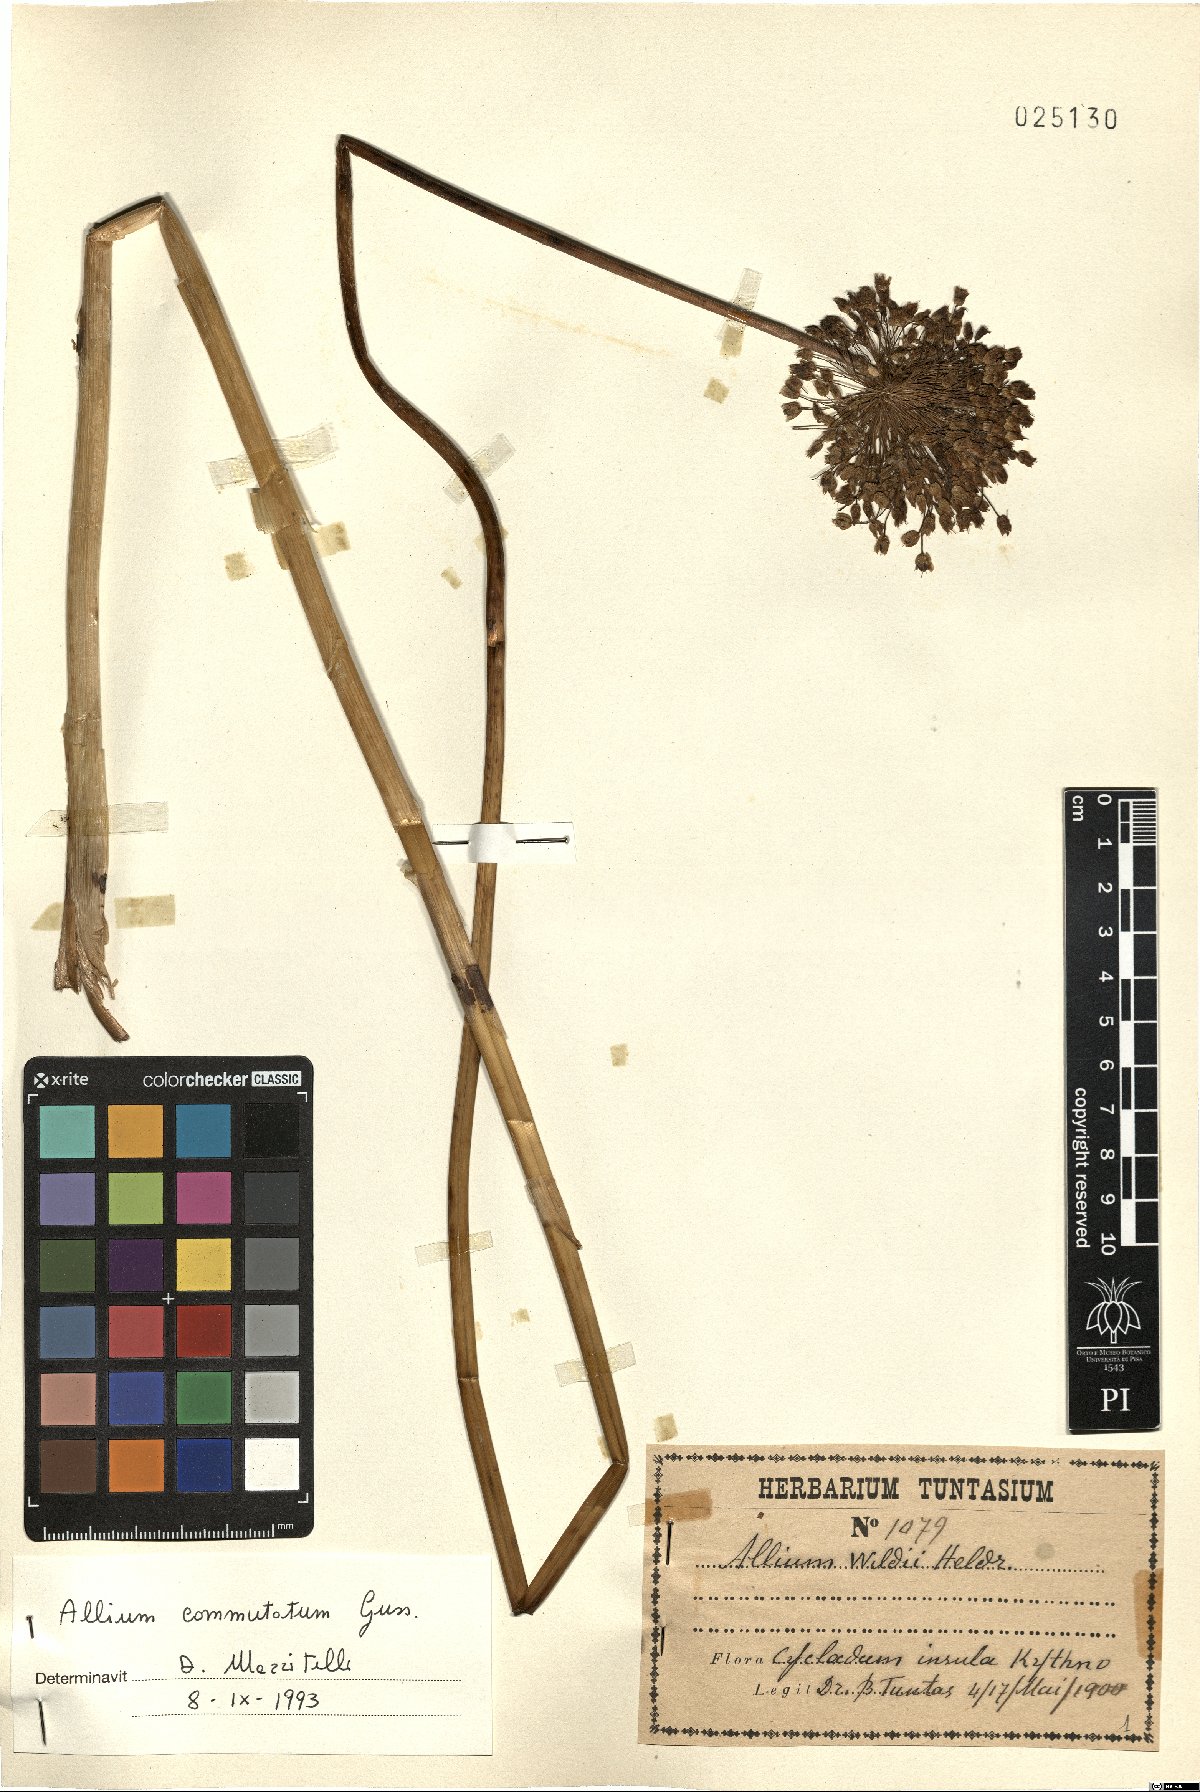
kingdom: Plantae
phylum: Tracheophyta
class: Liliopsida
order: Asparagales
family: Amaryllidaceae
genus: Allium
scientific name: Allium commutatum
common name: Sea garlic
